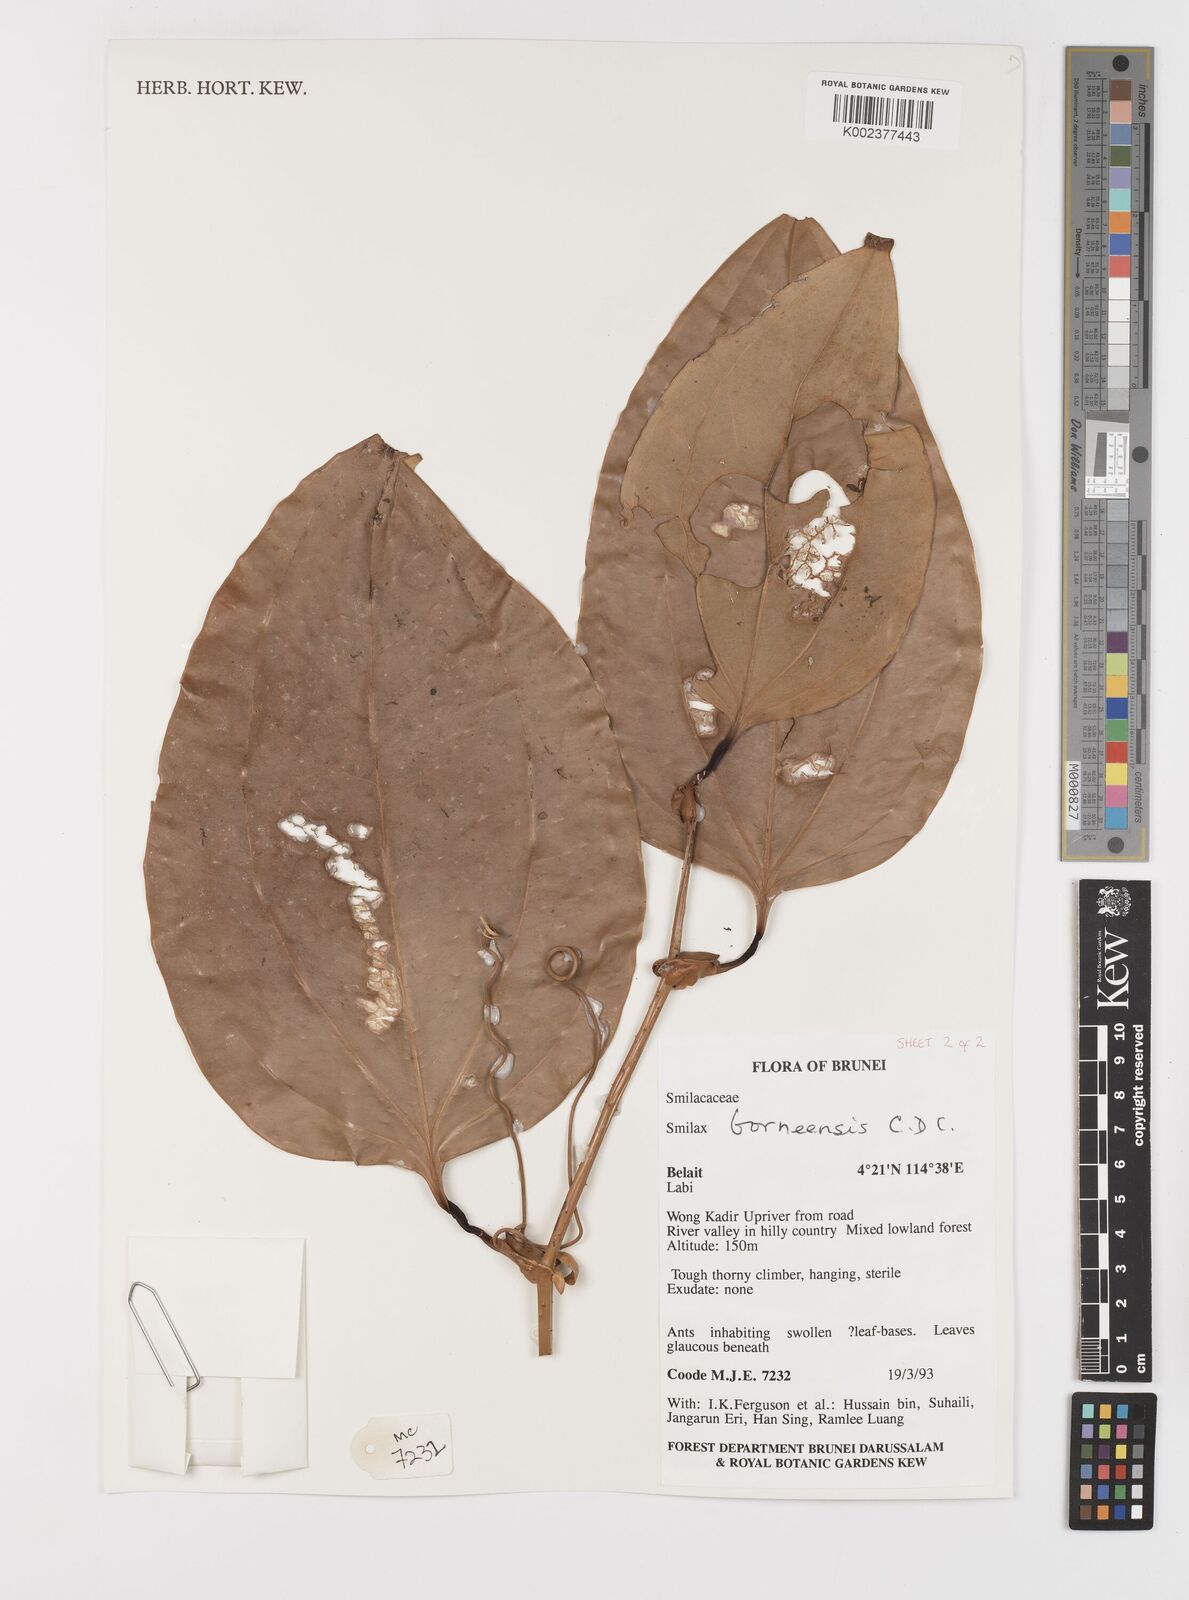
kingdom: Plantae
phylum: Tracheophyta
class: Liliopsida
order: Liliales
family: Smilacaceae
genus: Smilax
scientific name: Smilax borneensis
